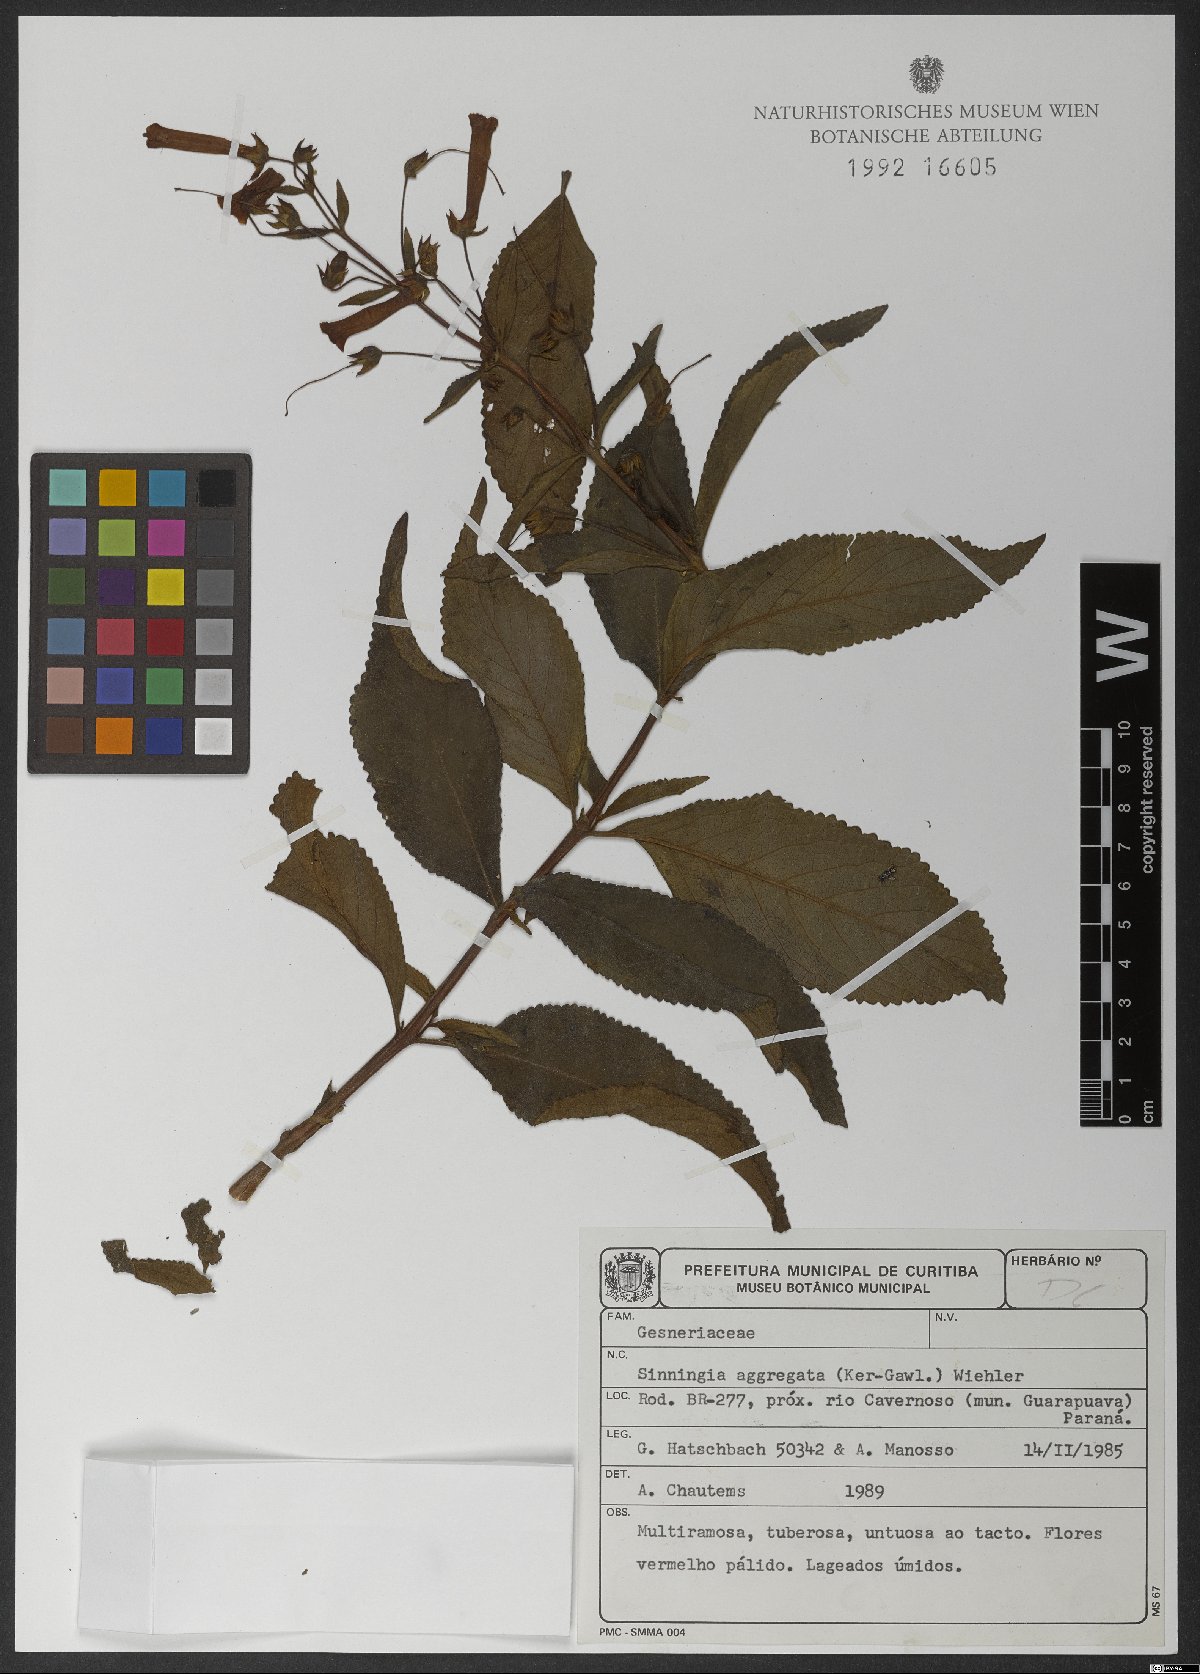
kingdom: Plantae
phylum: Tracheophyta
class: Magnoliopsida
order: Lamiales
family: Gesneriaceae
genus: Sinningia
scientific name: Sinningia aggregata
